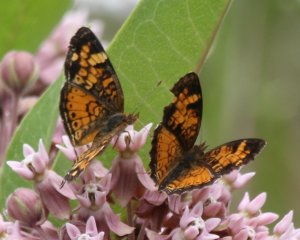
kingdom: Animalia
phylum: Arthropoda
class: Insecta
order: Lepidoptera
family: Nymphalidae
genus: Phyciodes
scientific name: Phyciodes tharos
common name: Northern Crescent
